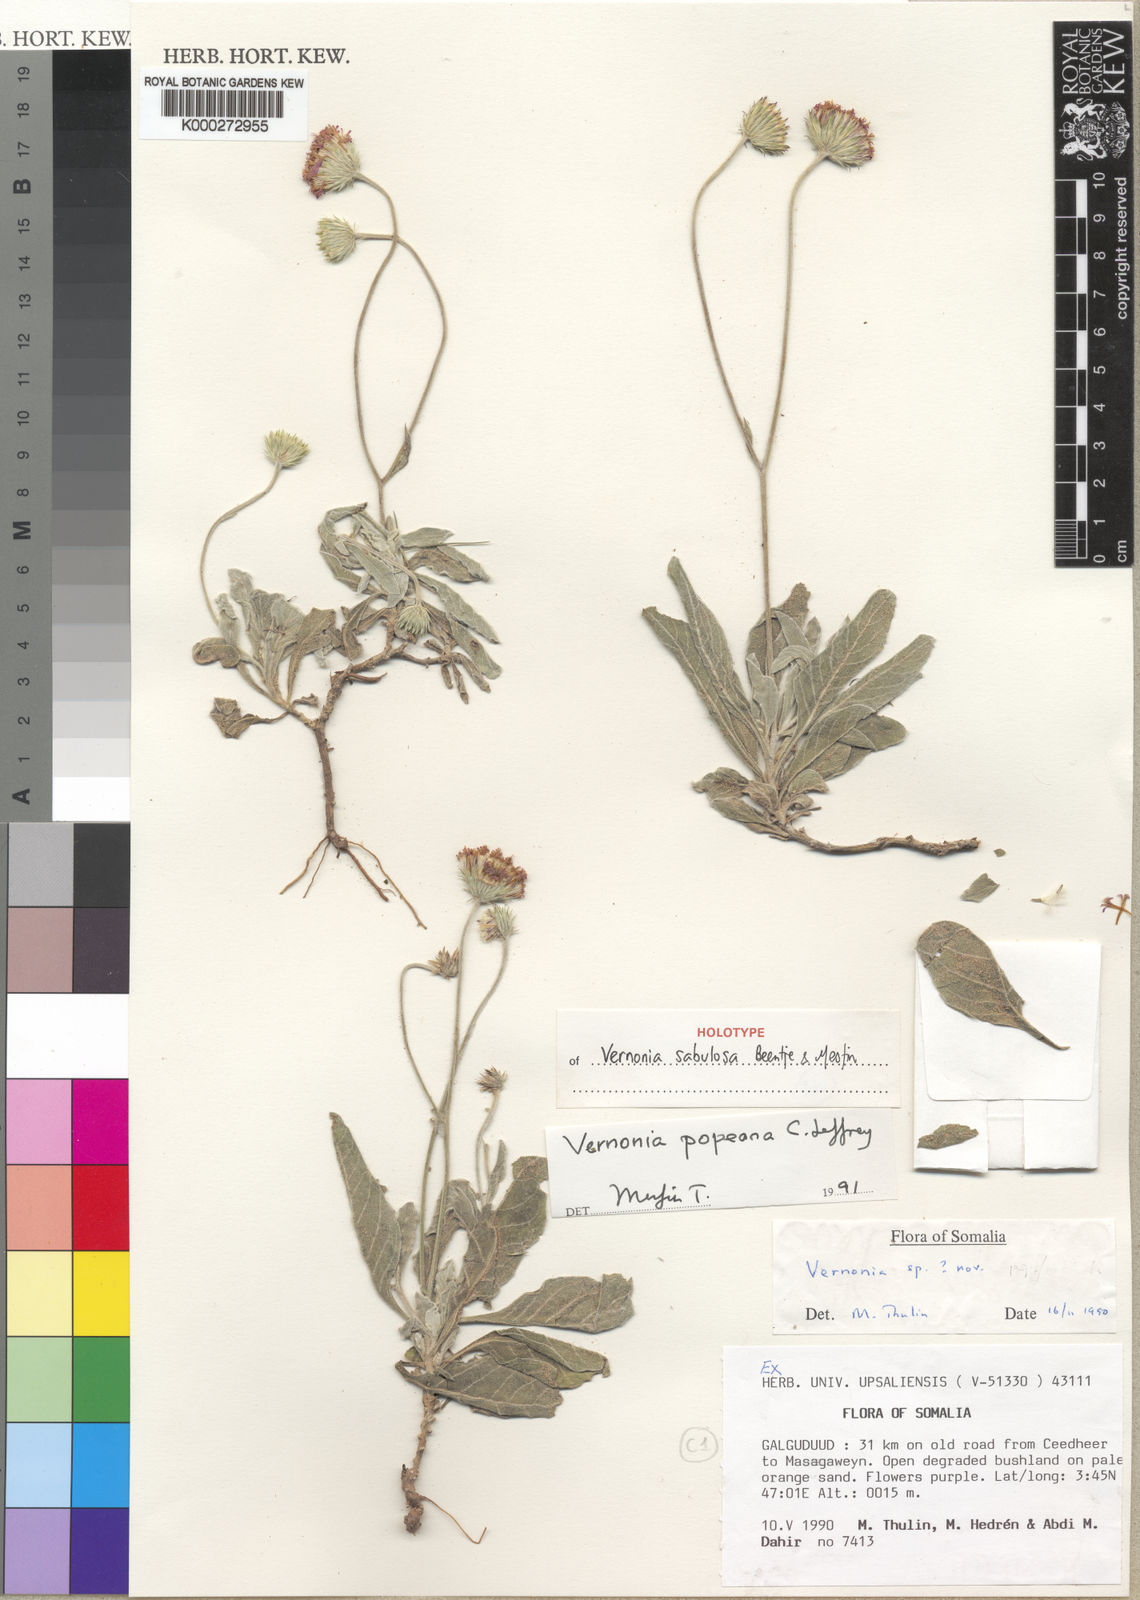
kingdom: Plantae
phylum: Tracheophyta
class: Magnoliopsida
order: Asterales
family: Asteraceae
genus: Vernonia
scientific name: Vernonia popeana
